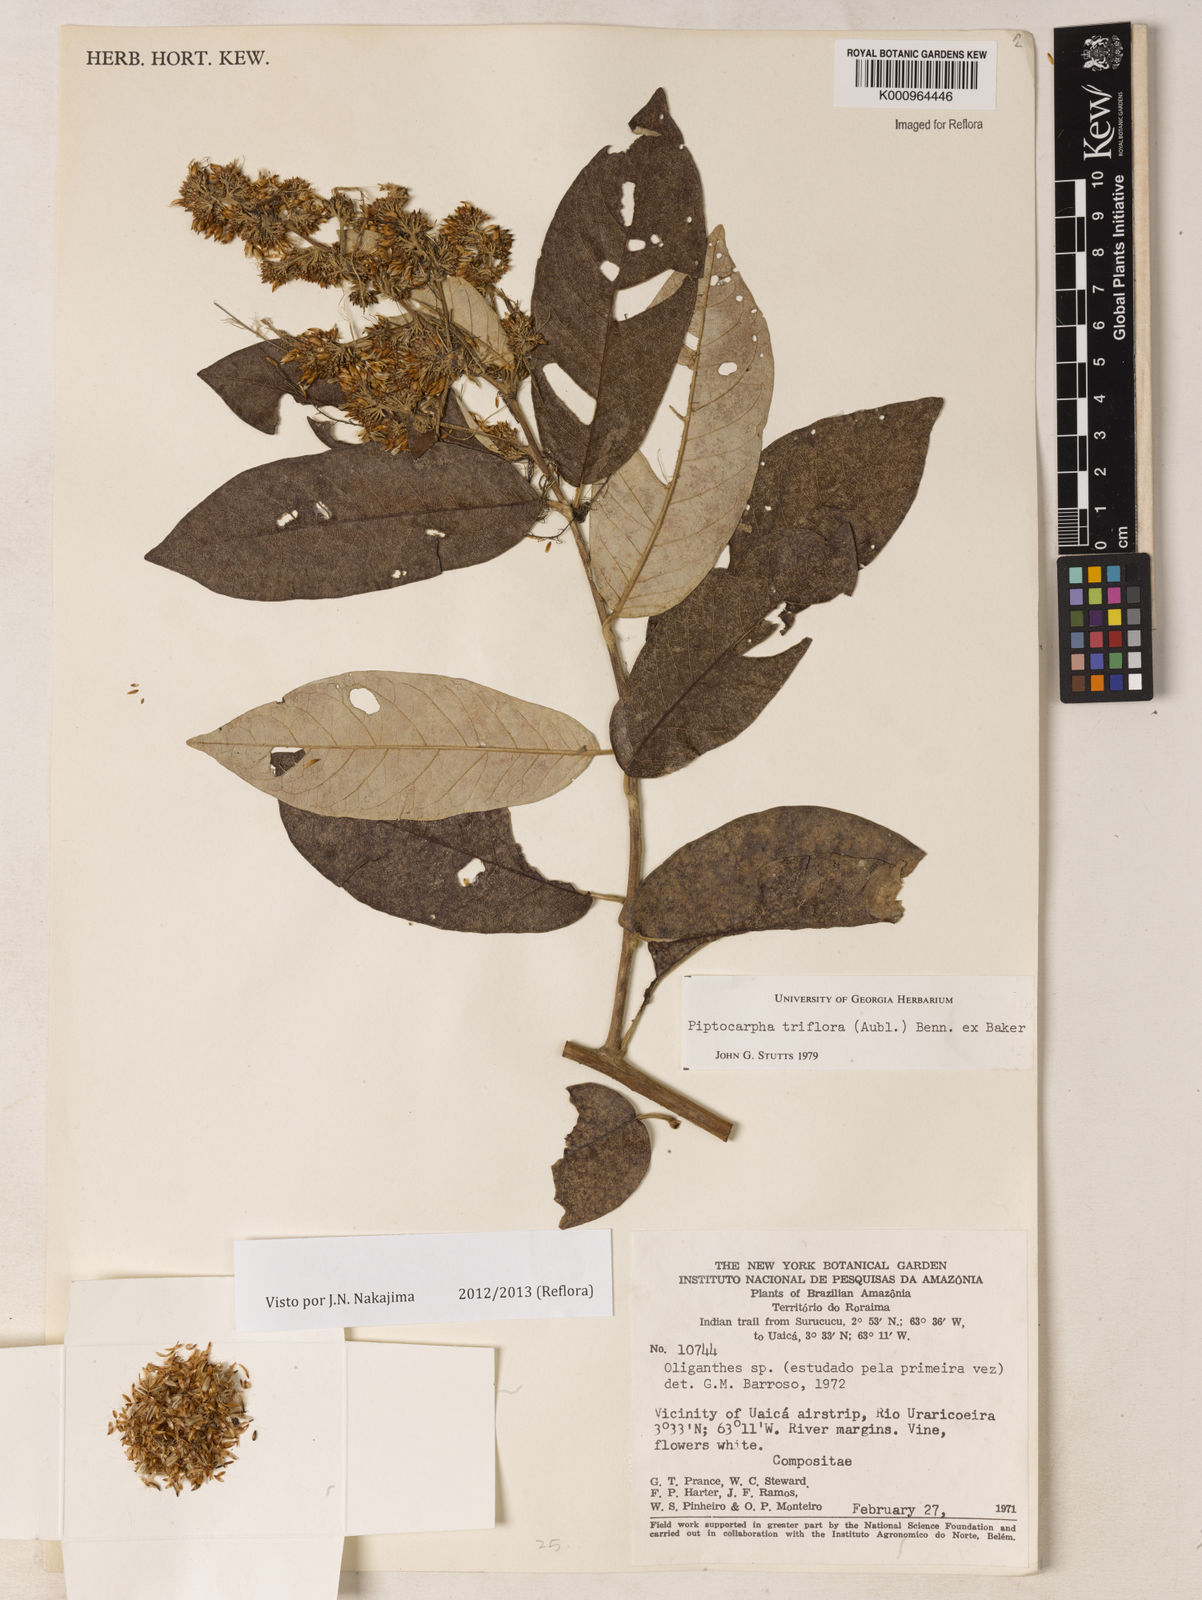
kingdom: Plantae
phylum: Tracheophyta
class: Magnoliopsida
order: Asterales
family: Asteraceae
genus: Piptocarpha
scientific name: Piptocarpha triflora
